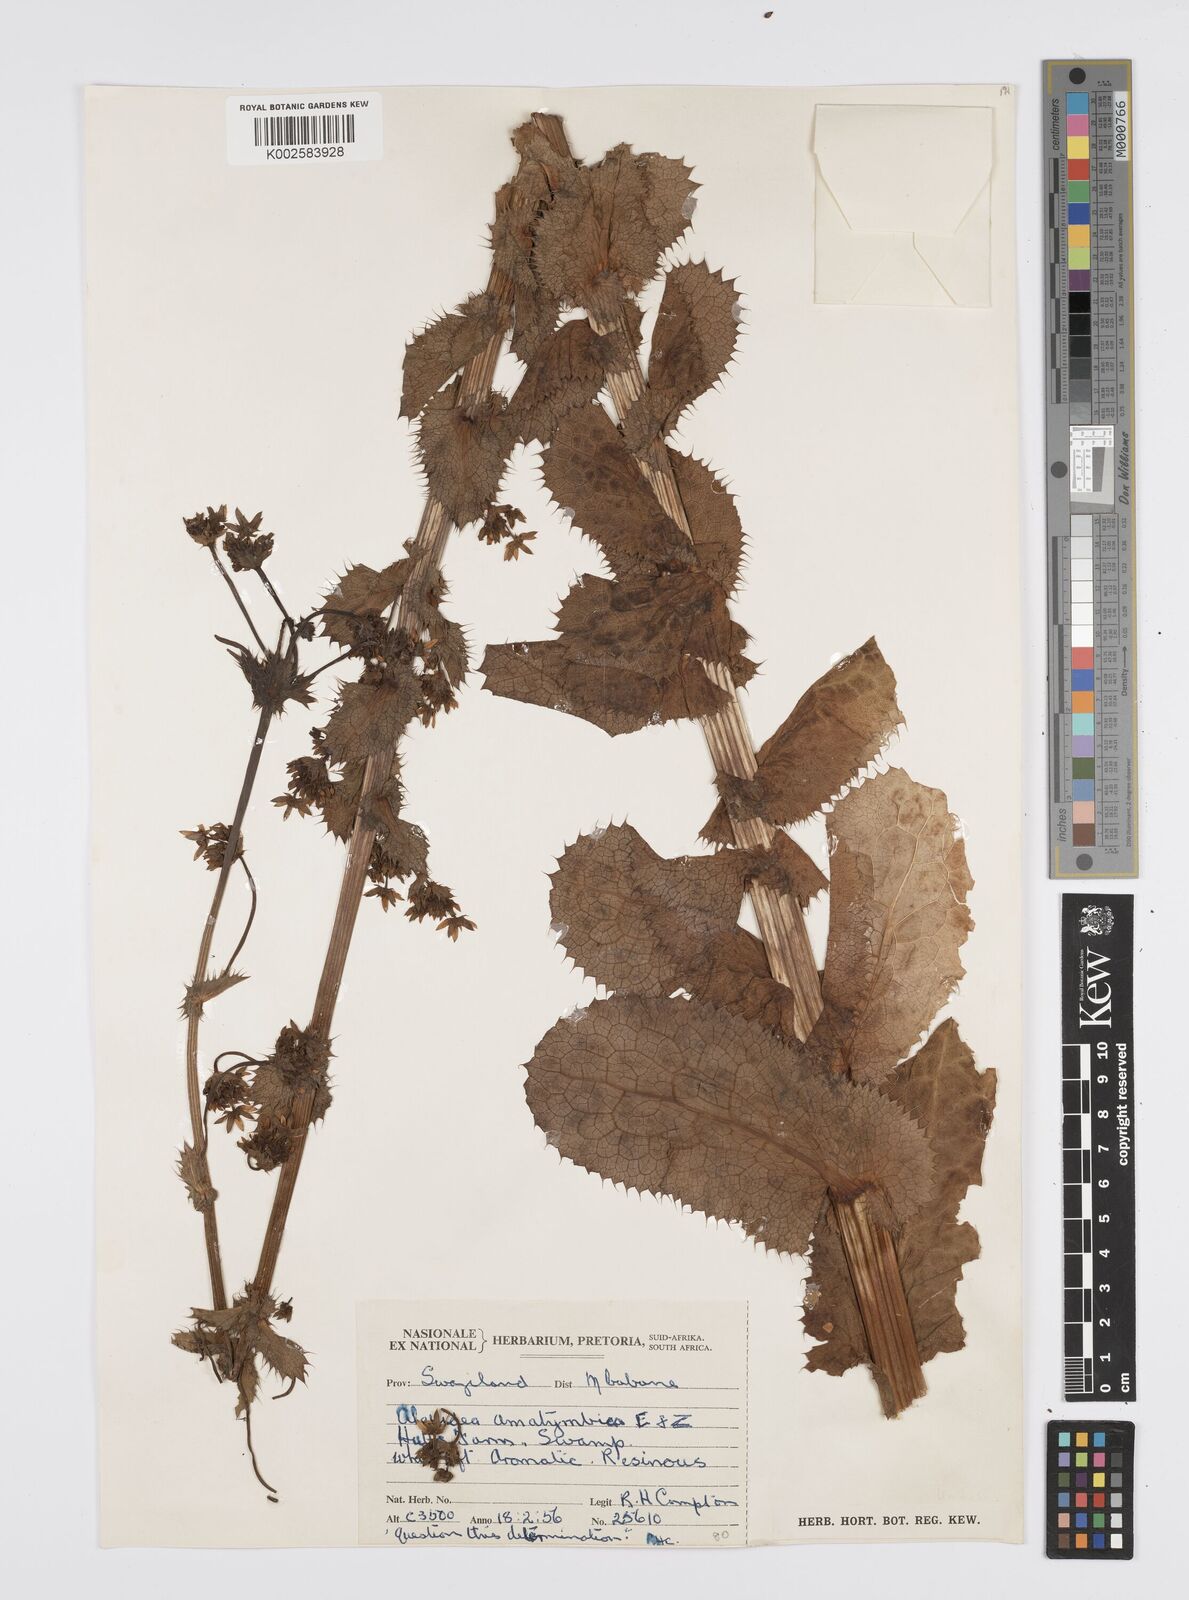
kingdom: Plantae
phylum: Tracheophyta
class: Magnoliopsida
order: Apiales
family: Apiaceae
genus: Alepidea
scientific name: Alepidea amatymbica
